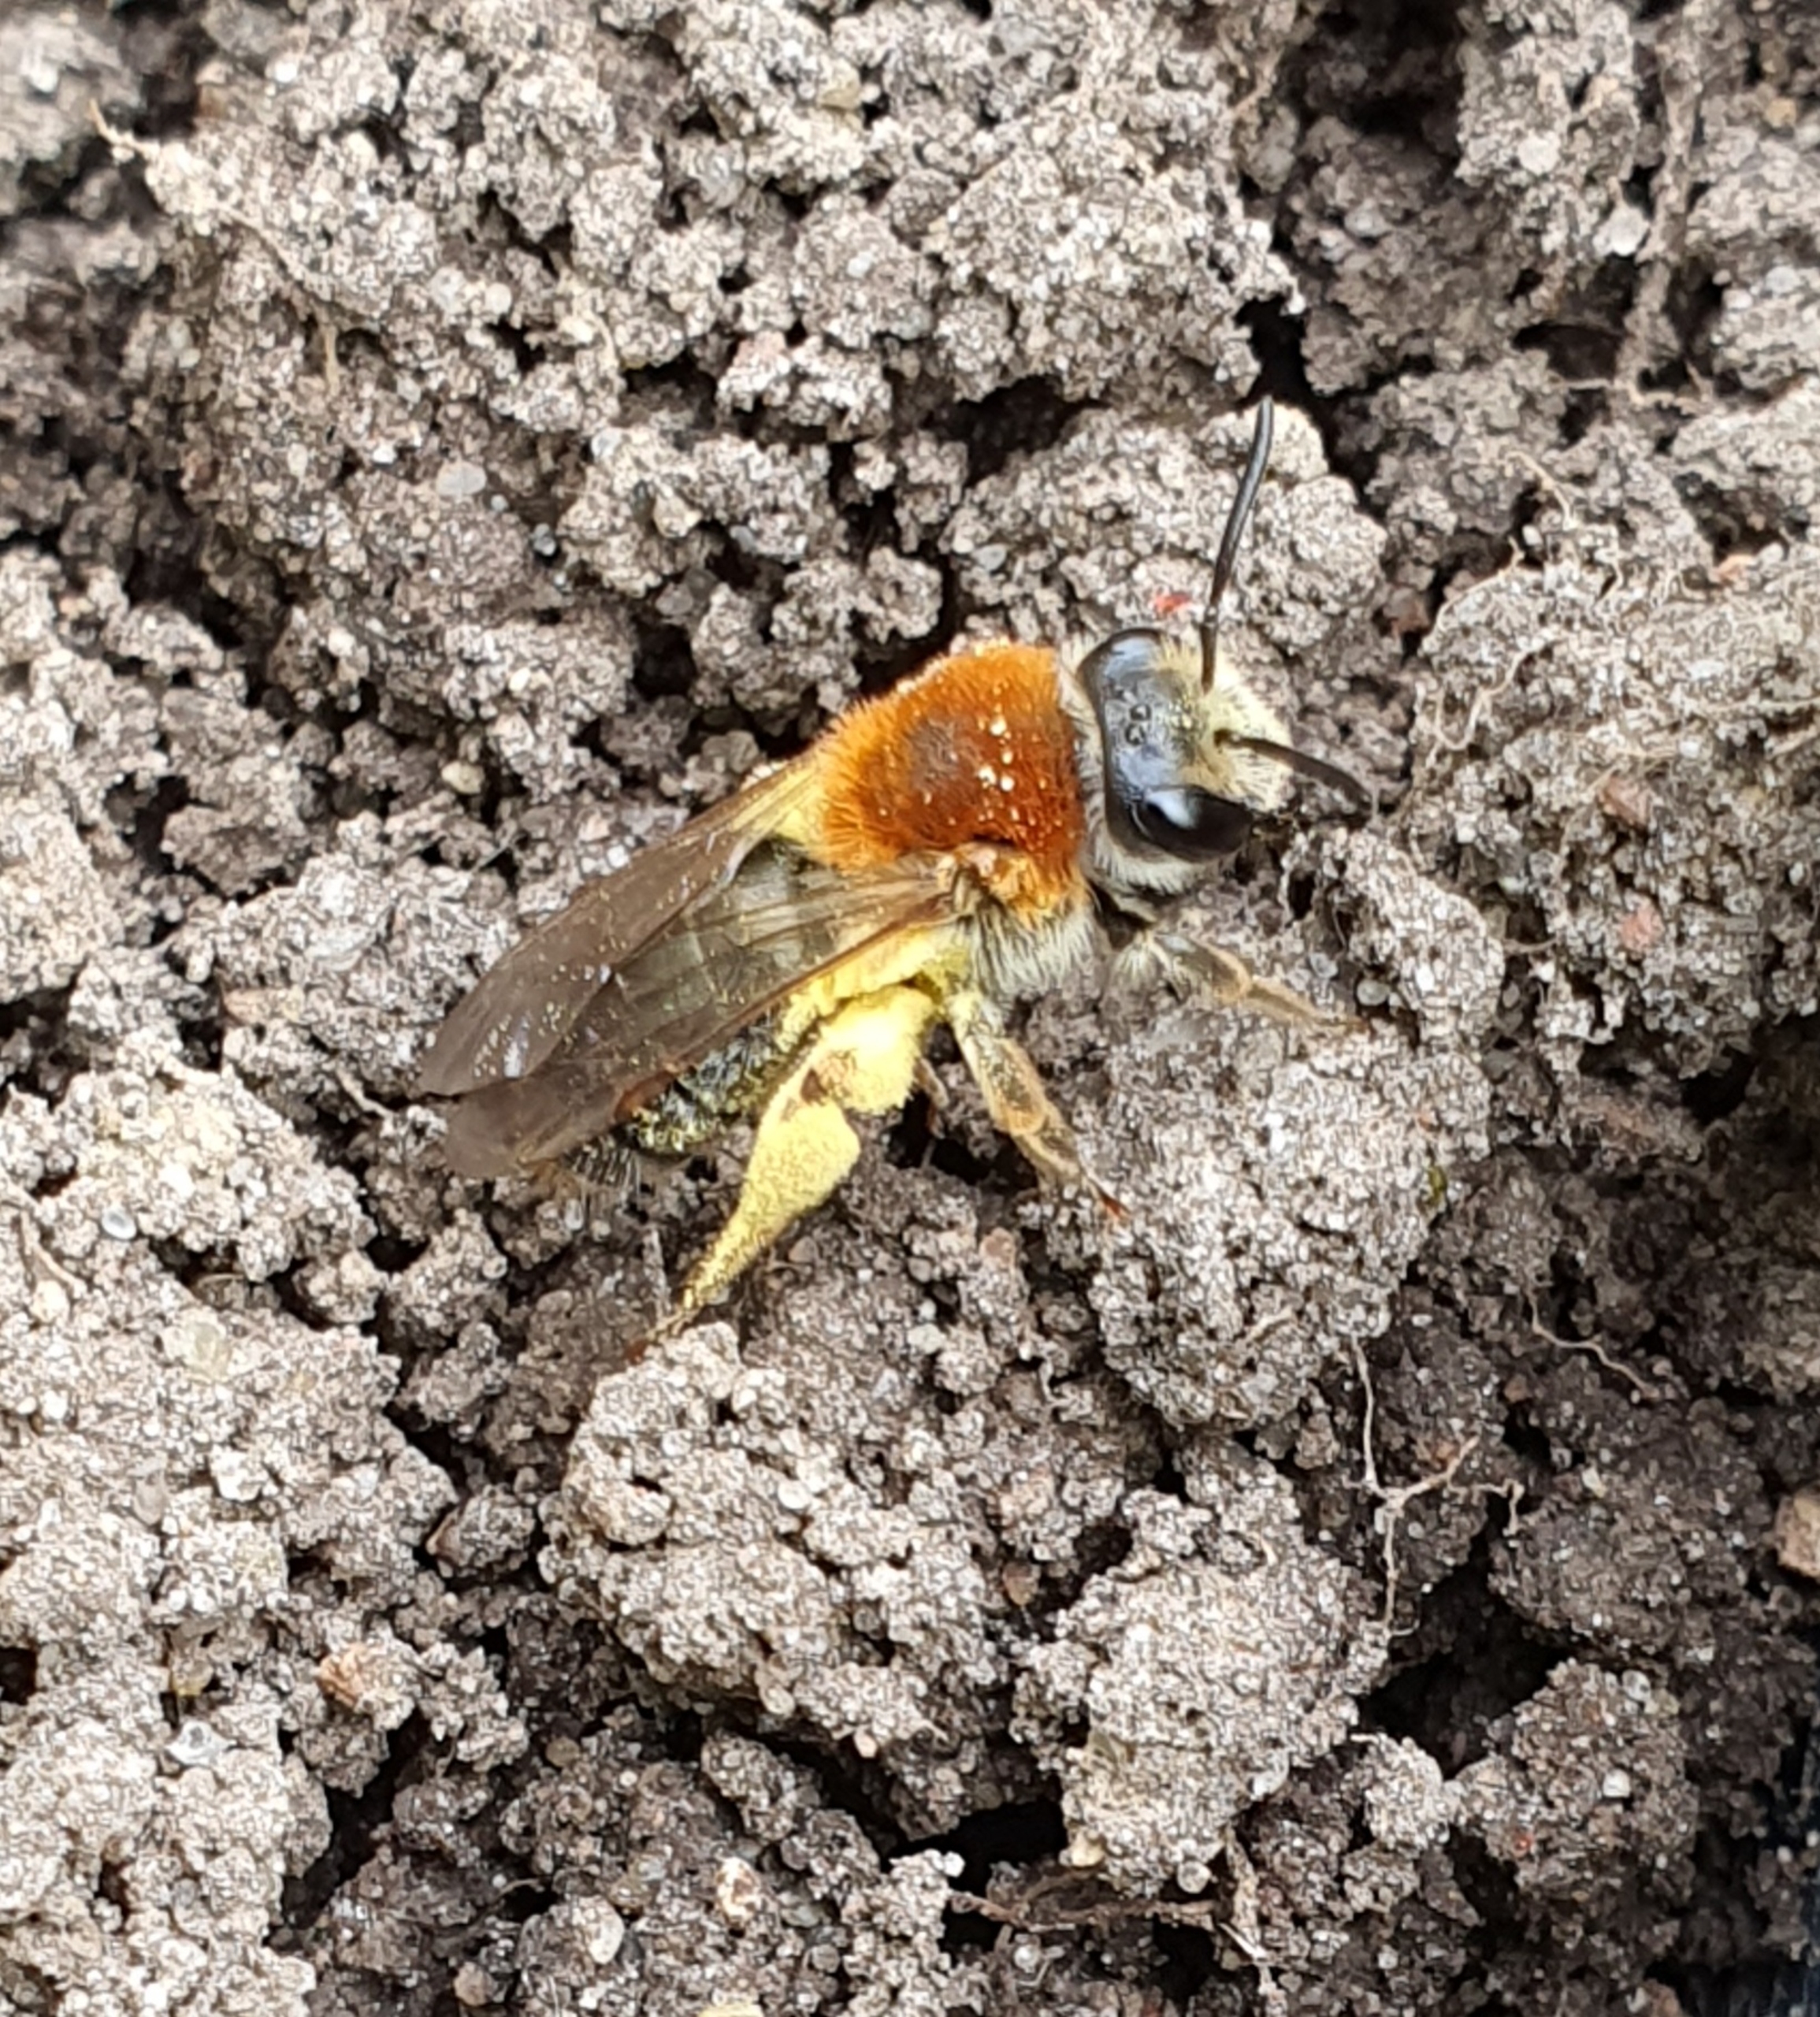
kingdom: Animalia
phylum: Arthropoda
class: Insecta
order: Hymenoptera
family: Andrenidae
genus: Andrena
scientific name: Andrena haemorrhoa
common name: Havejordbi
